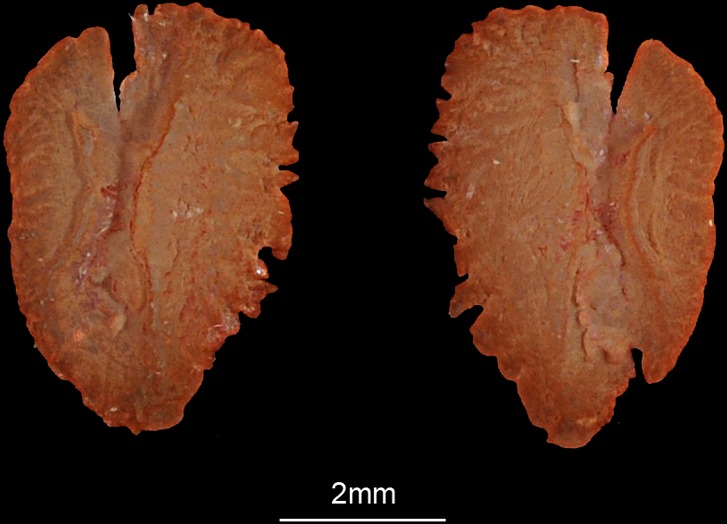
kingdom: Animalia
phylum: Chordata
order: Perciformes
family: Scaridae
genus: Hipposcarus
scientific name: Hipposcarus harid
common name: Candelamoa parrotfish
